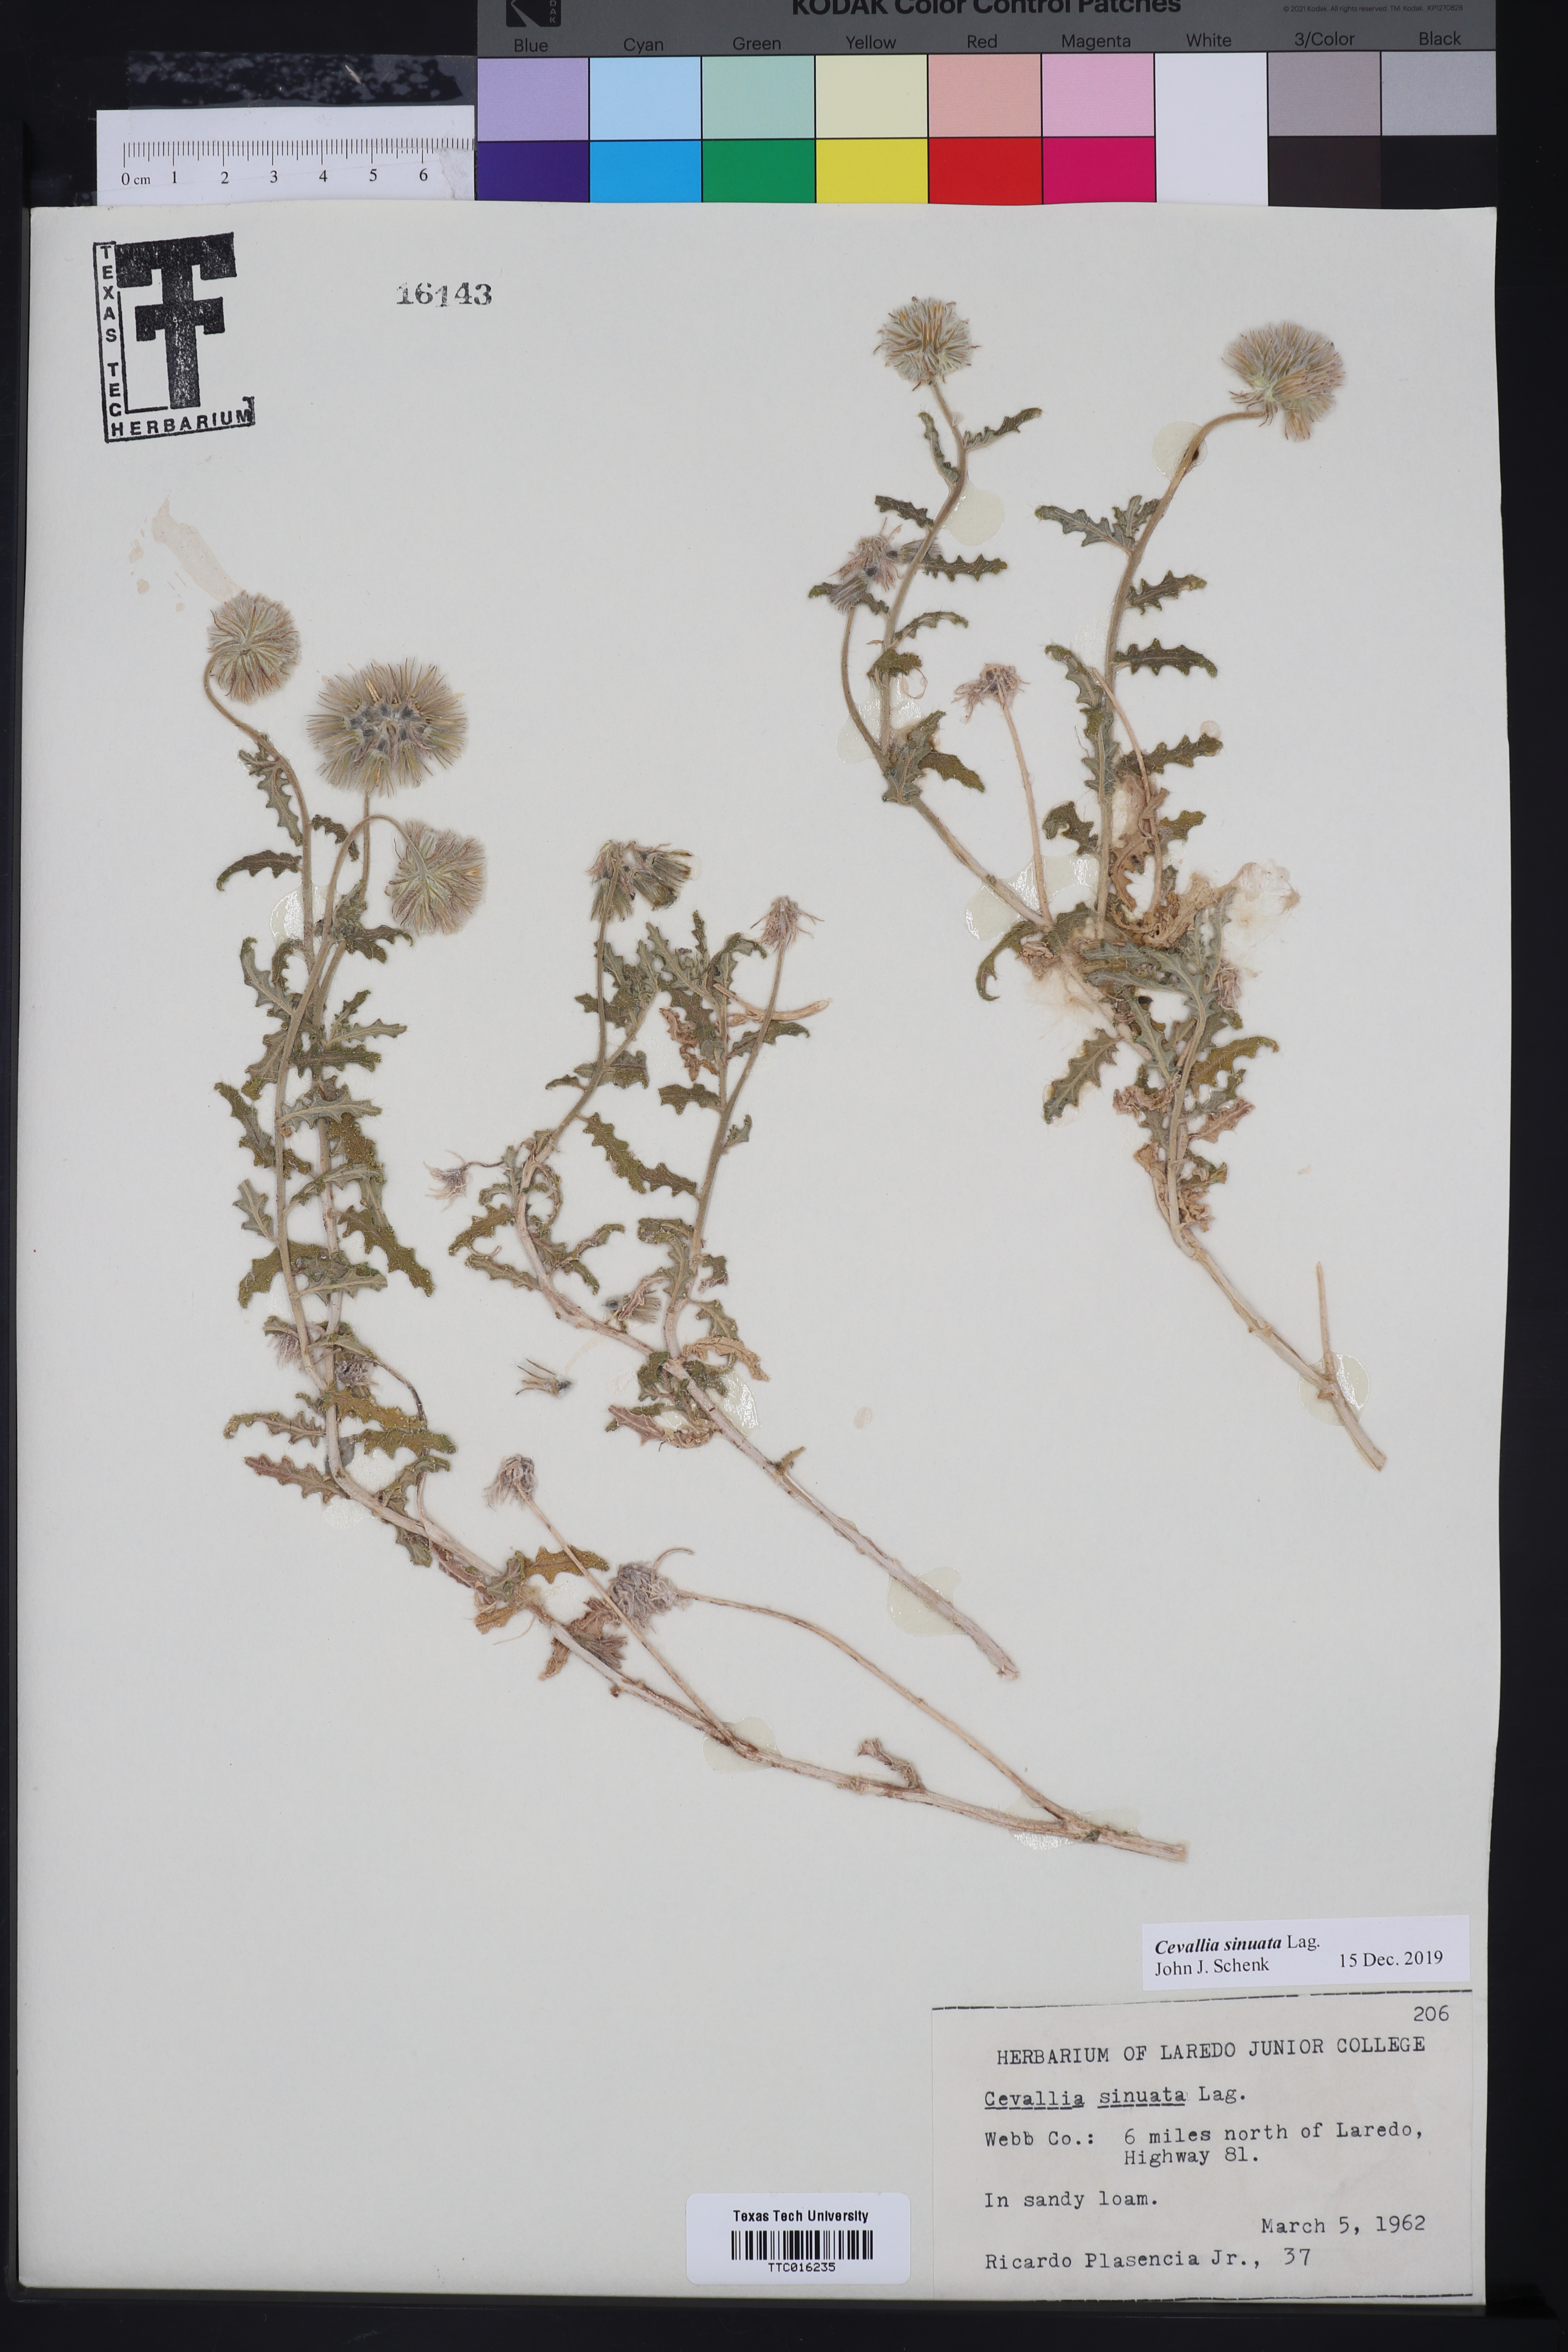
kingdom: Plantae
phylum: Tracheophyta
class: Magnoliopsida
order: Cornales
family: Loasaceae
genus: Cevallia
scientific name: Cevallia sinuata
